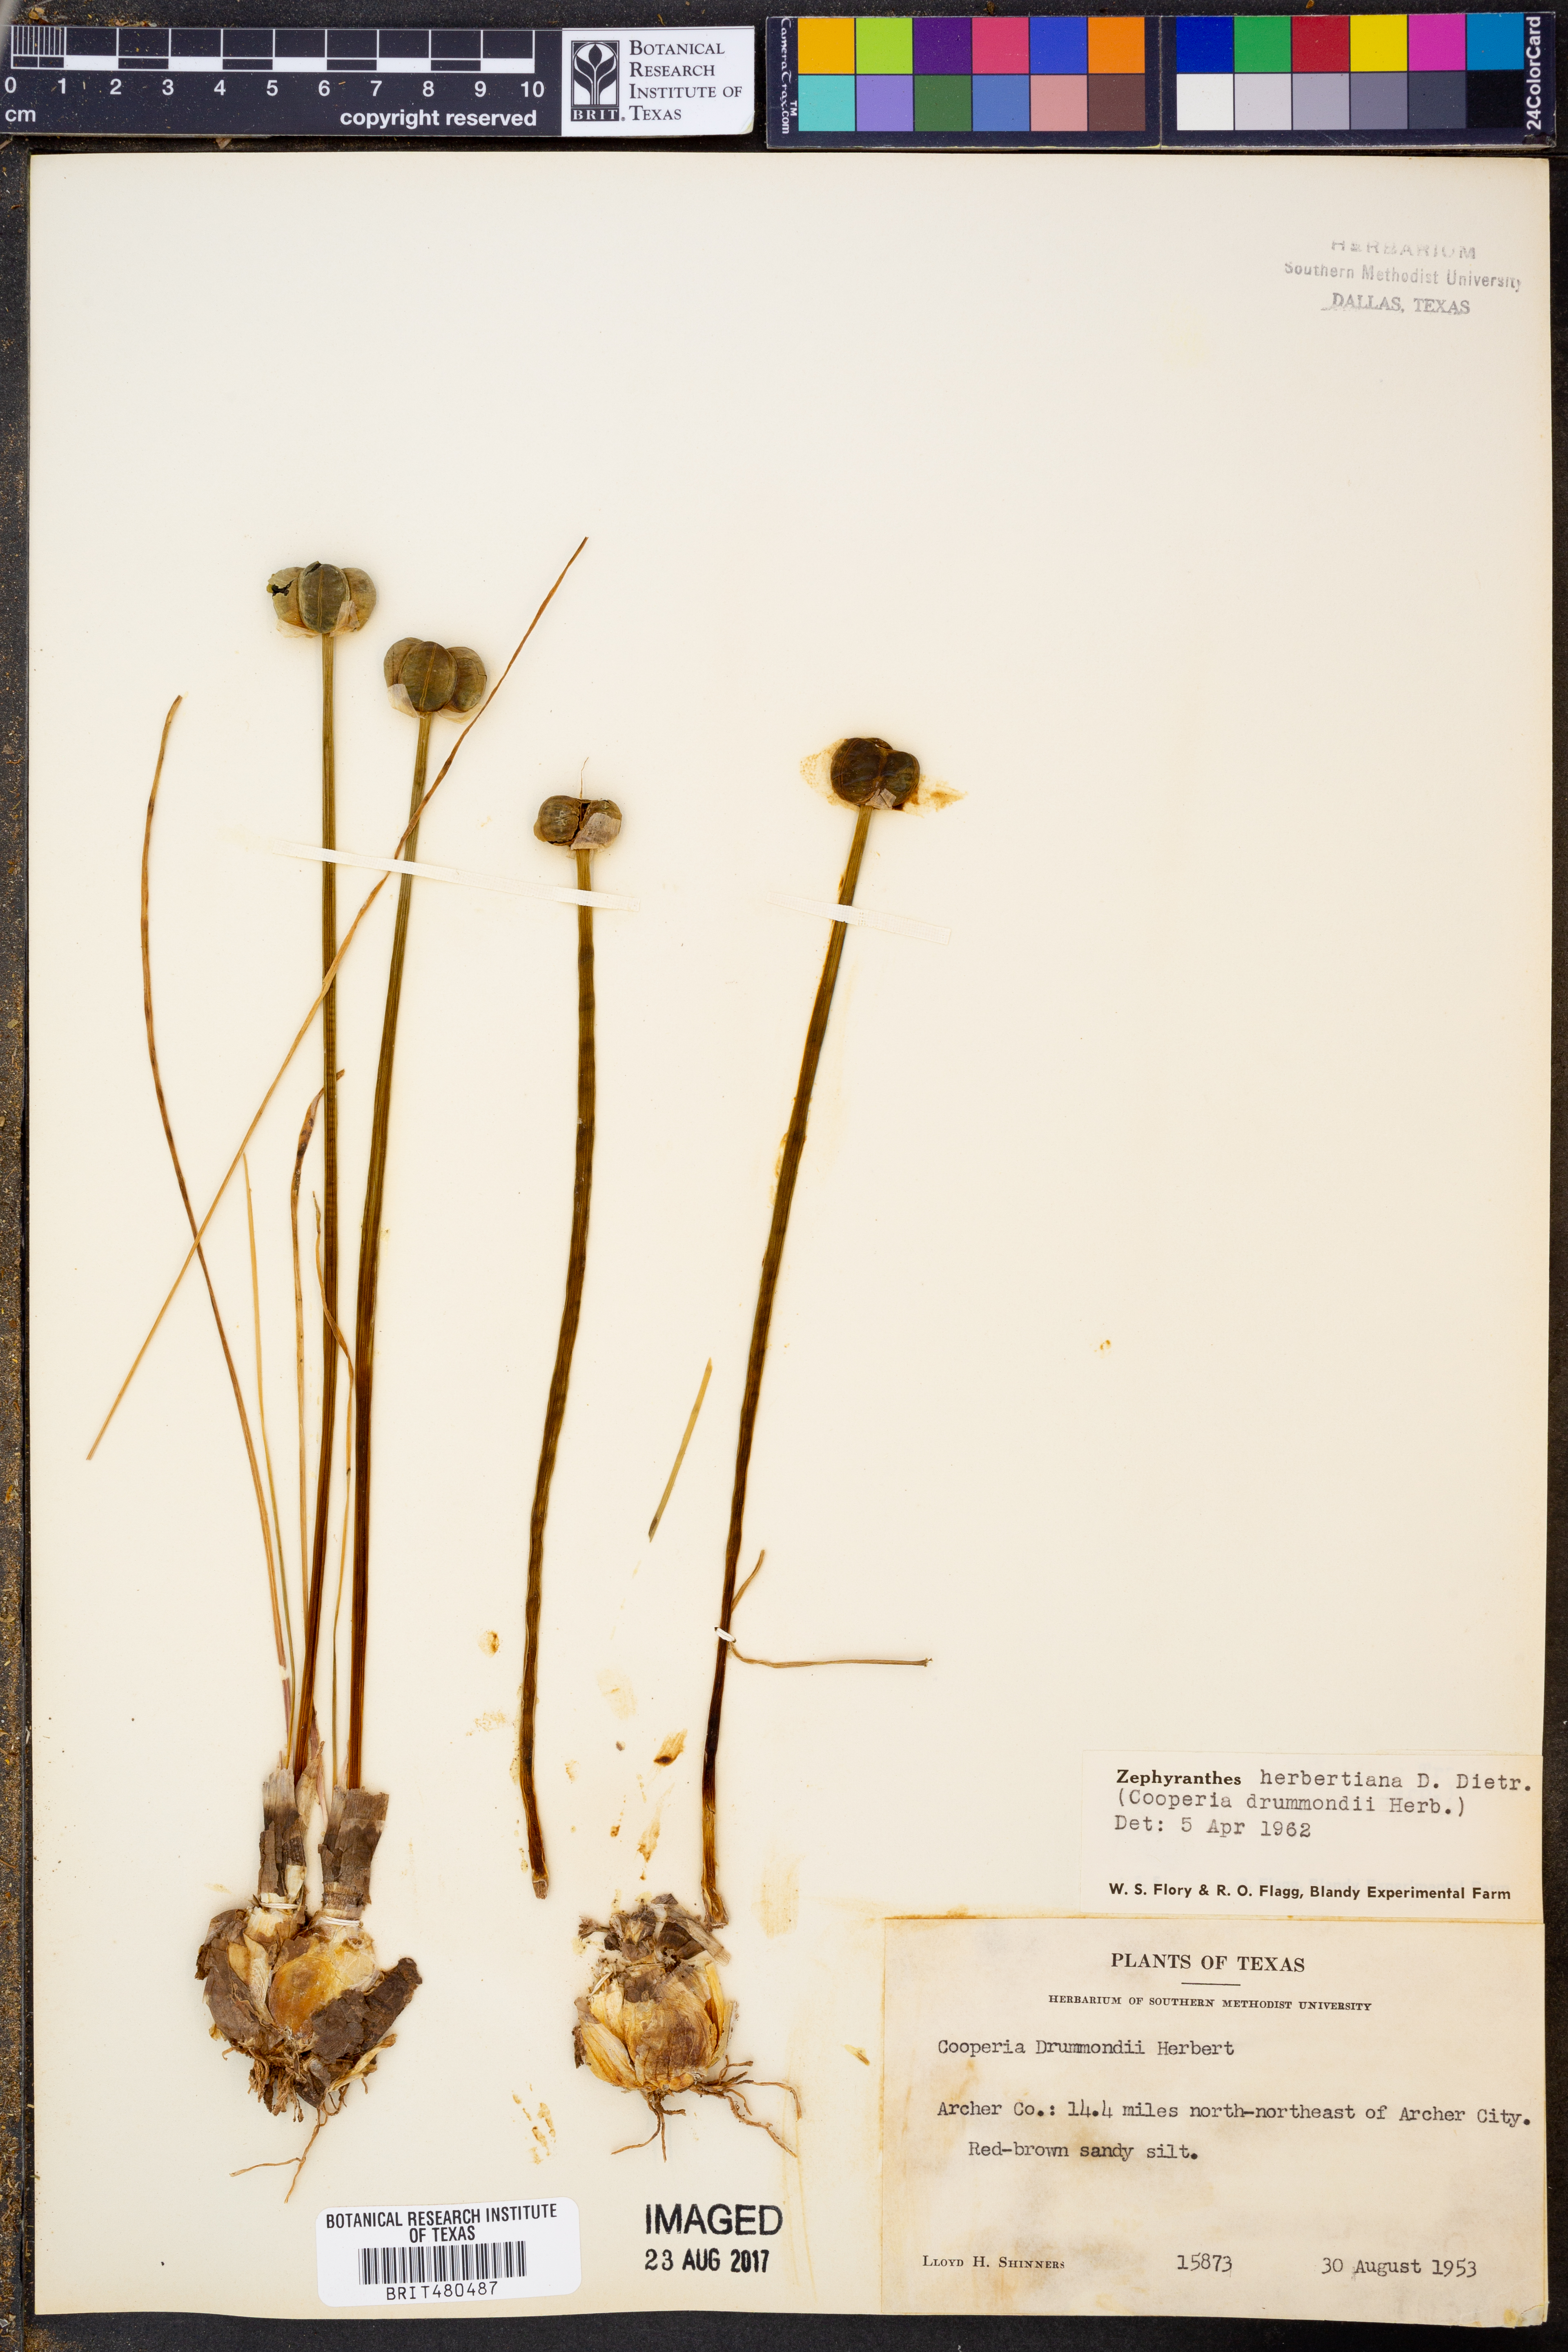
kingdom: Plantae
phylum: Tracheophyta
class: Liliopsida
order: Asparagales
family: Amaryllidaceae
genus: Zephyranthes
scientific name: Zephyranthes chlorosolen
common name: Evening rain-lily
